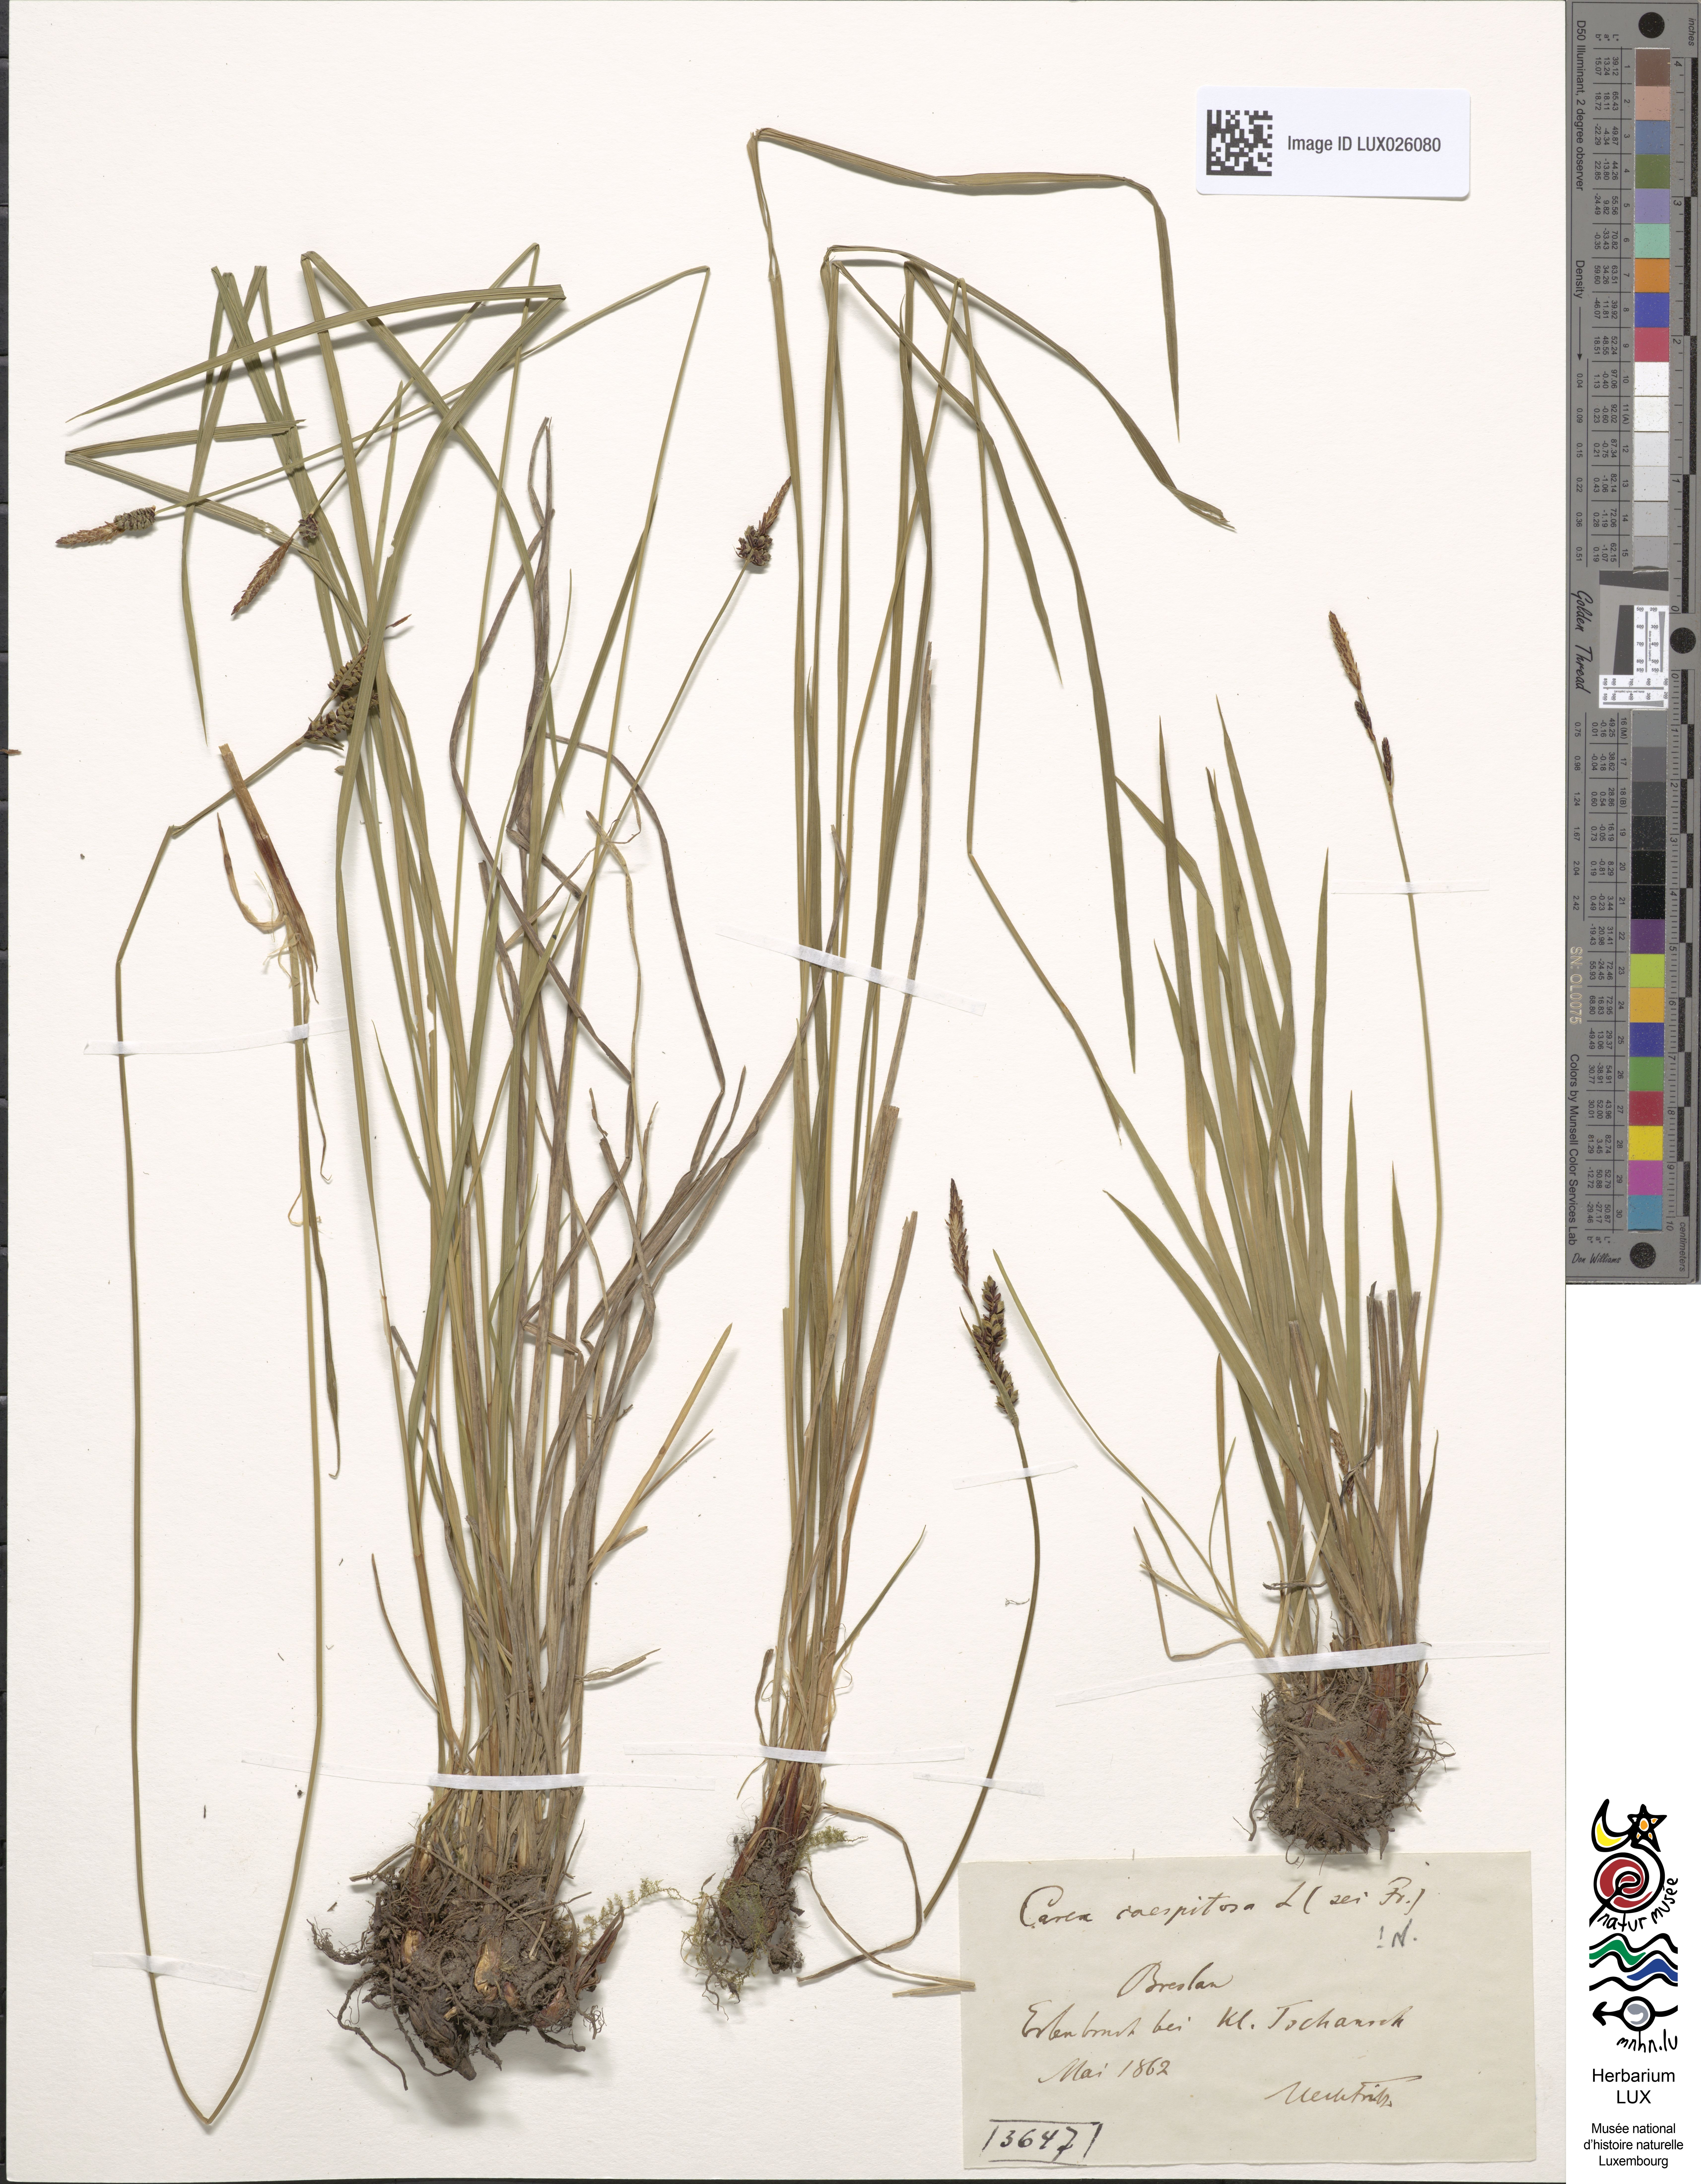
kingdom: Plantae
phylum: Tracheophyta
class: Liliopsida
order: Poales
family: Cyperaceae
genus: Carex
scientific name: Carex cespitosa
